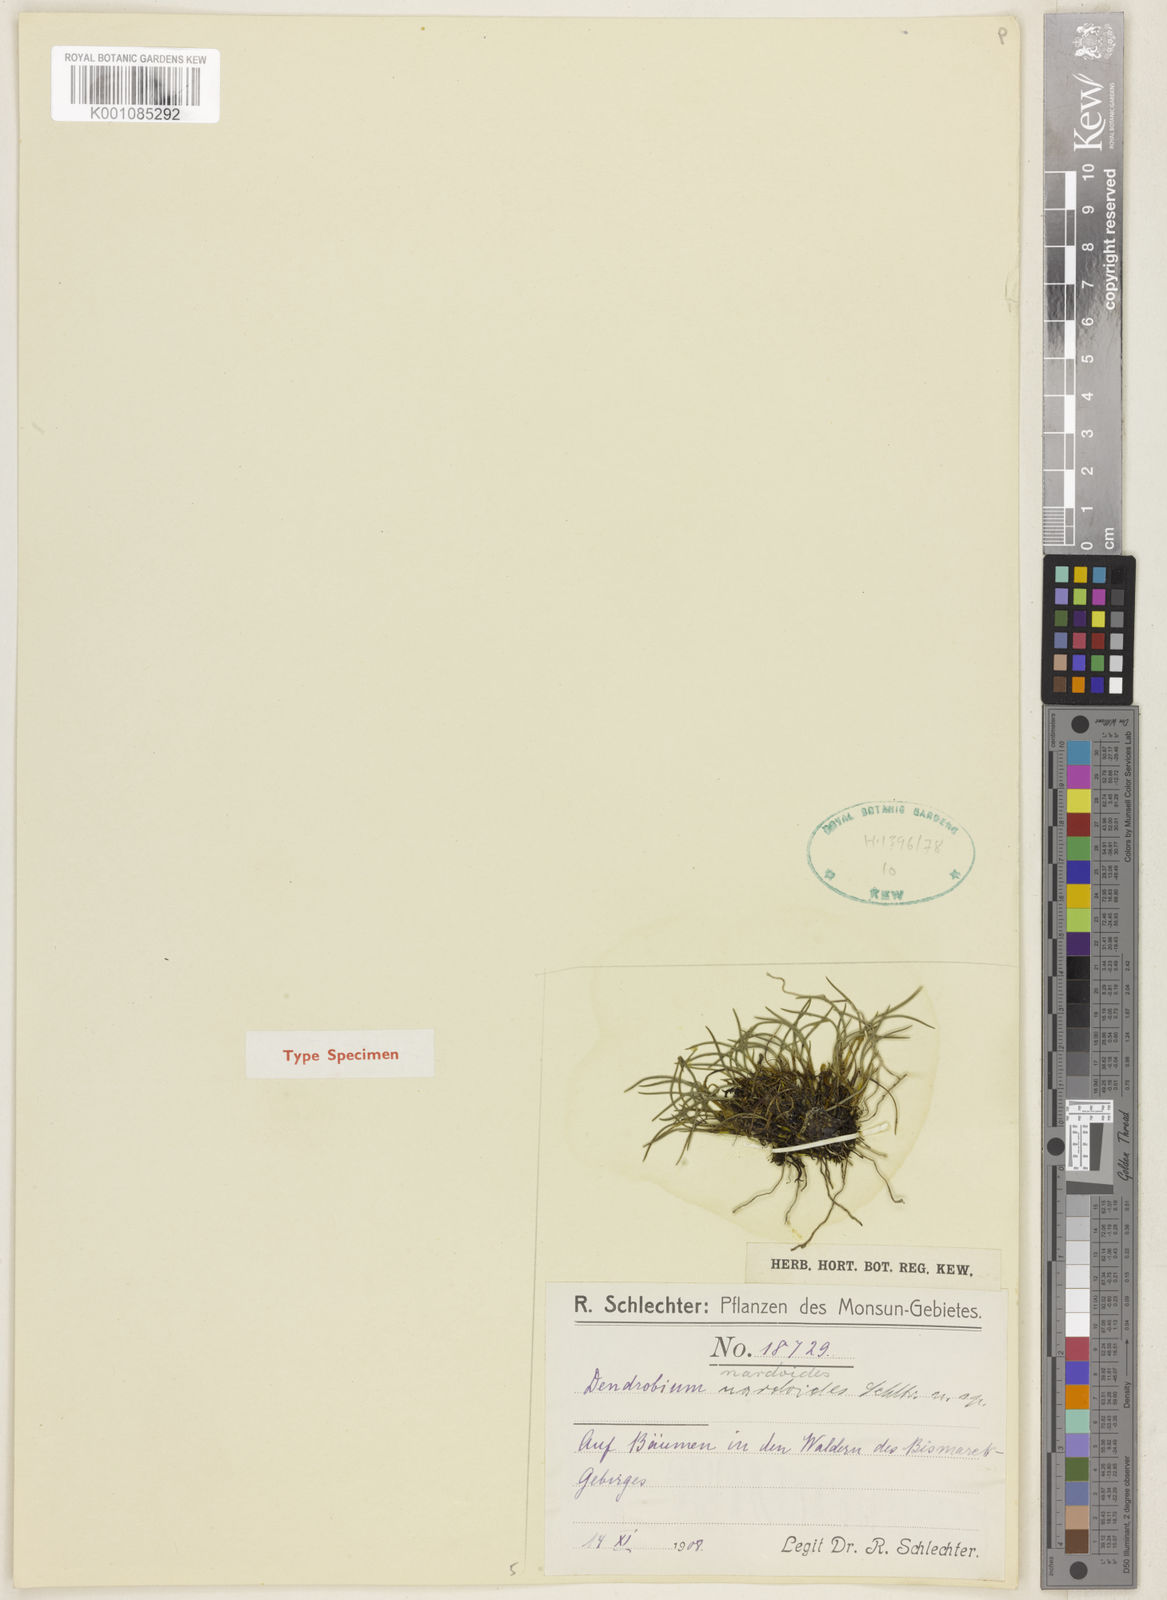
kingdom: Plantae
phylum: Tracheophyta
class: Liliopsida
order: Asparagales
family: Orchidaceae
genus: Dendrobium
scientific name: Dendrobium nardoides
